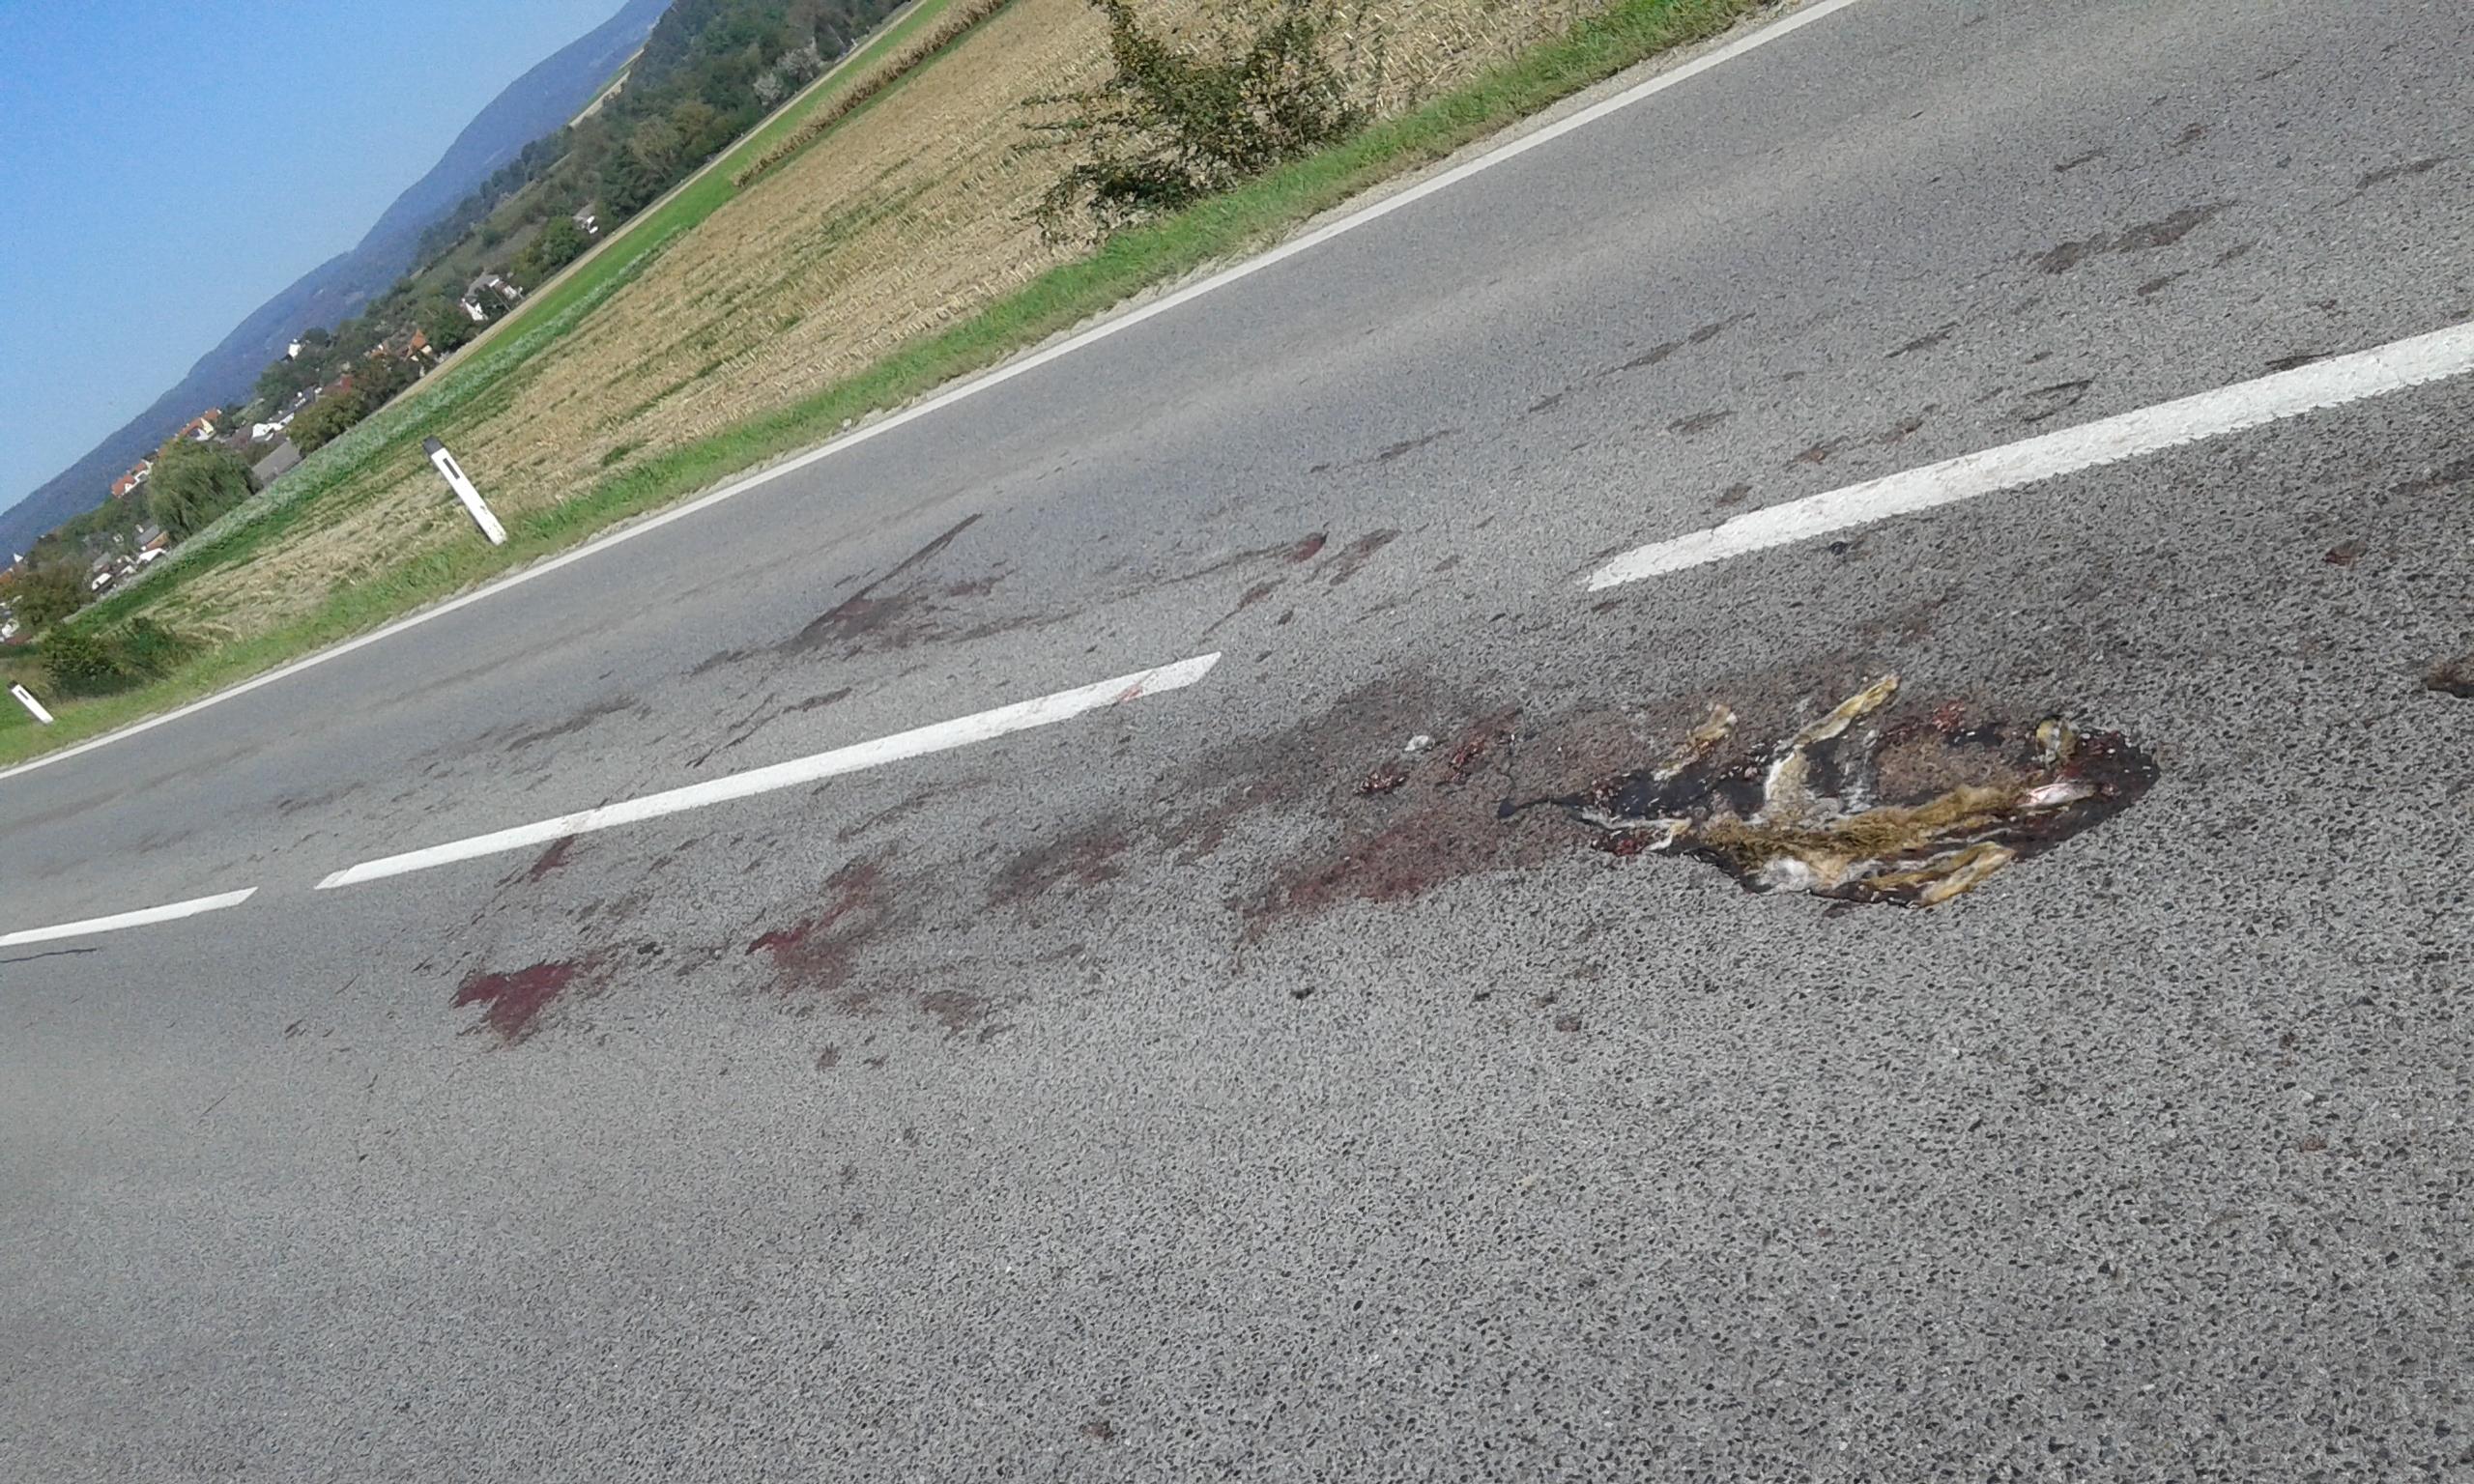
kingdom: Animalia
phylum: Chordata
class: Mammalia
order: Lagomorpha
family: Leporidae
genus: Lepus
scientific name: Lepus europaeus
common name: European hare
